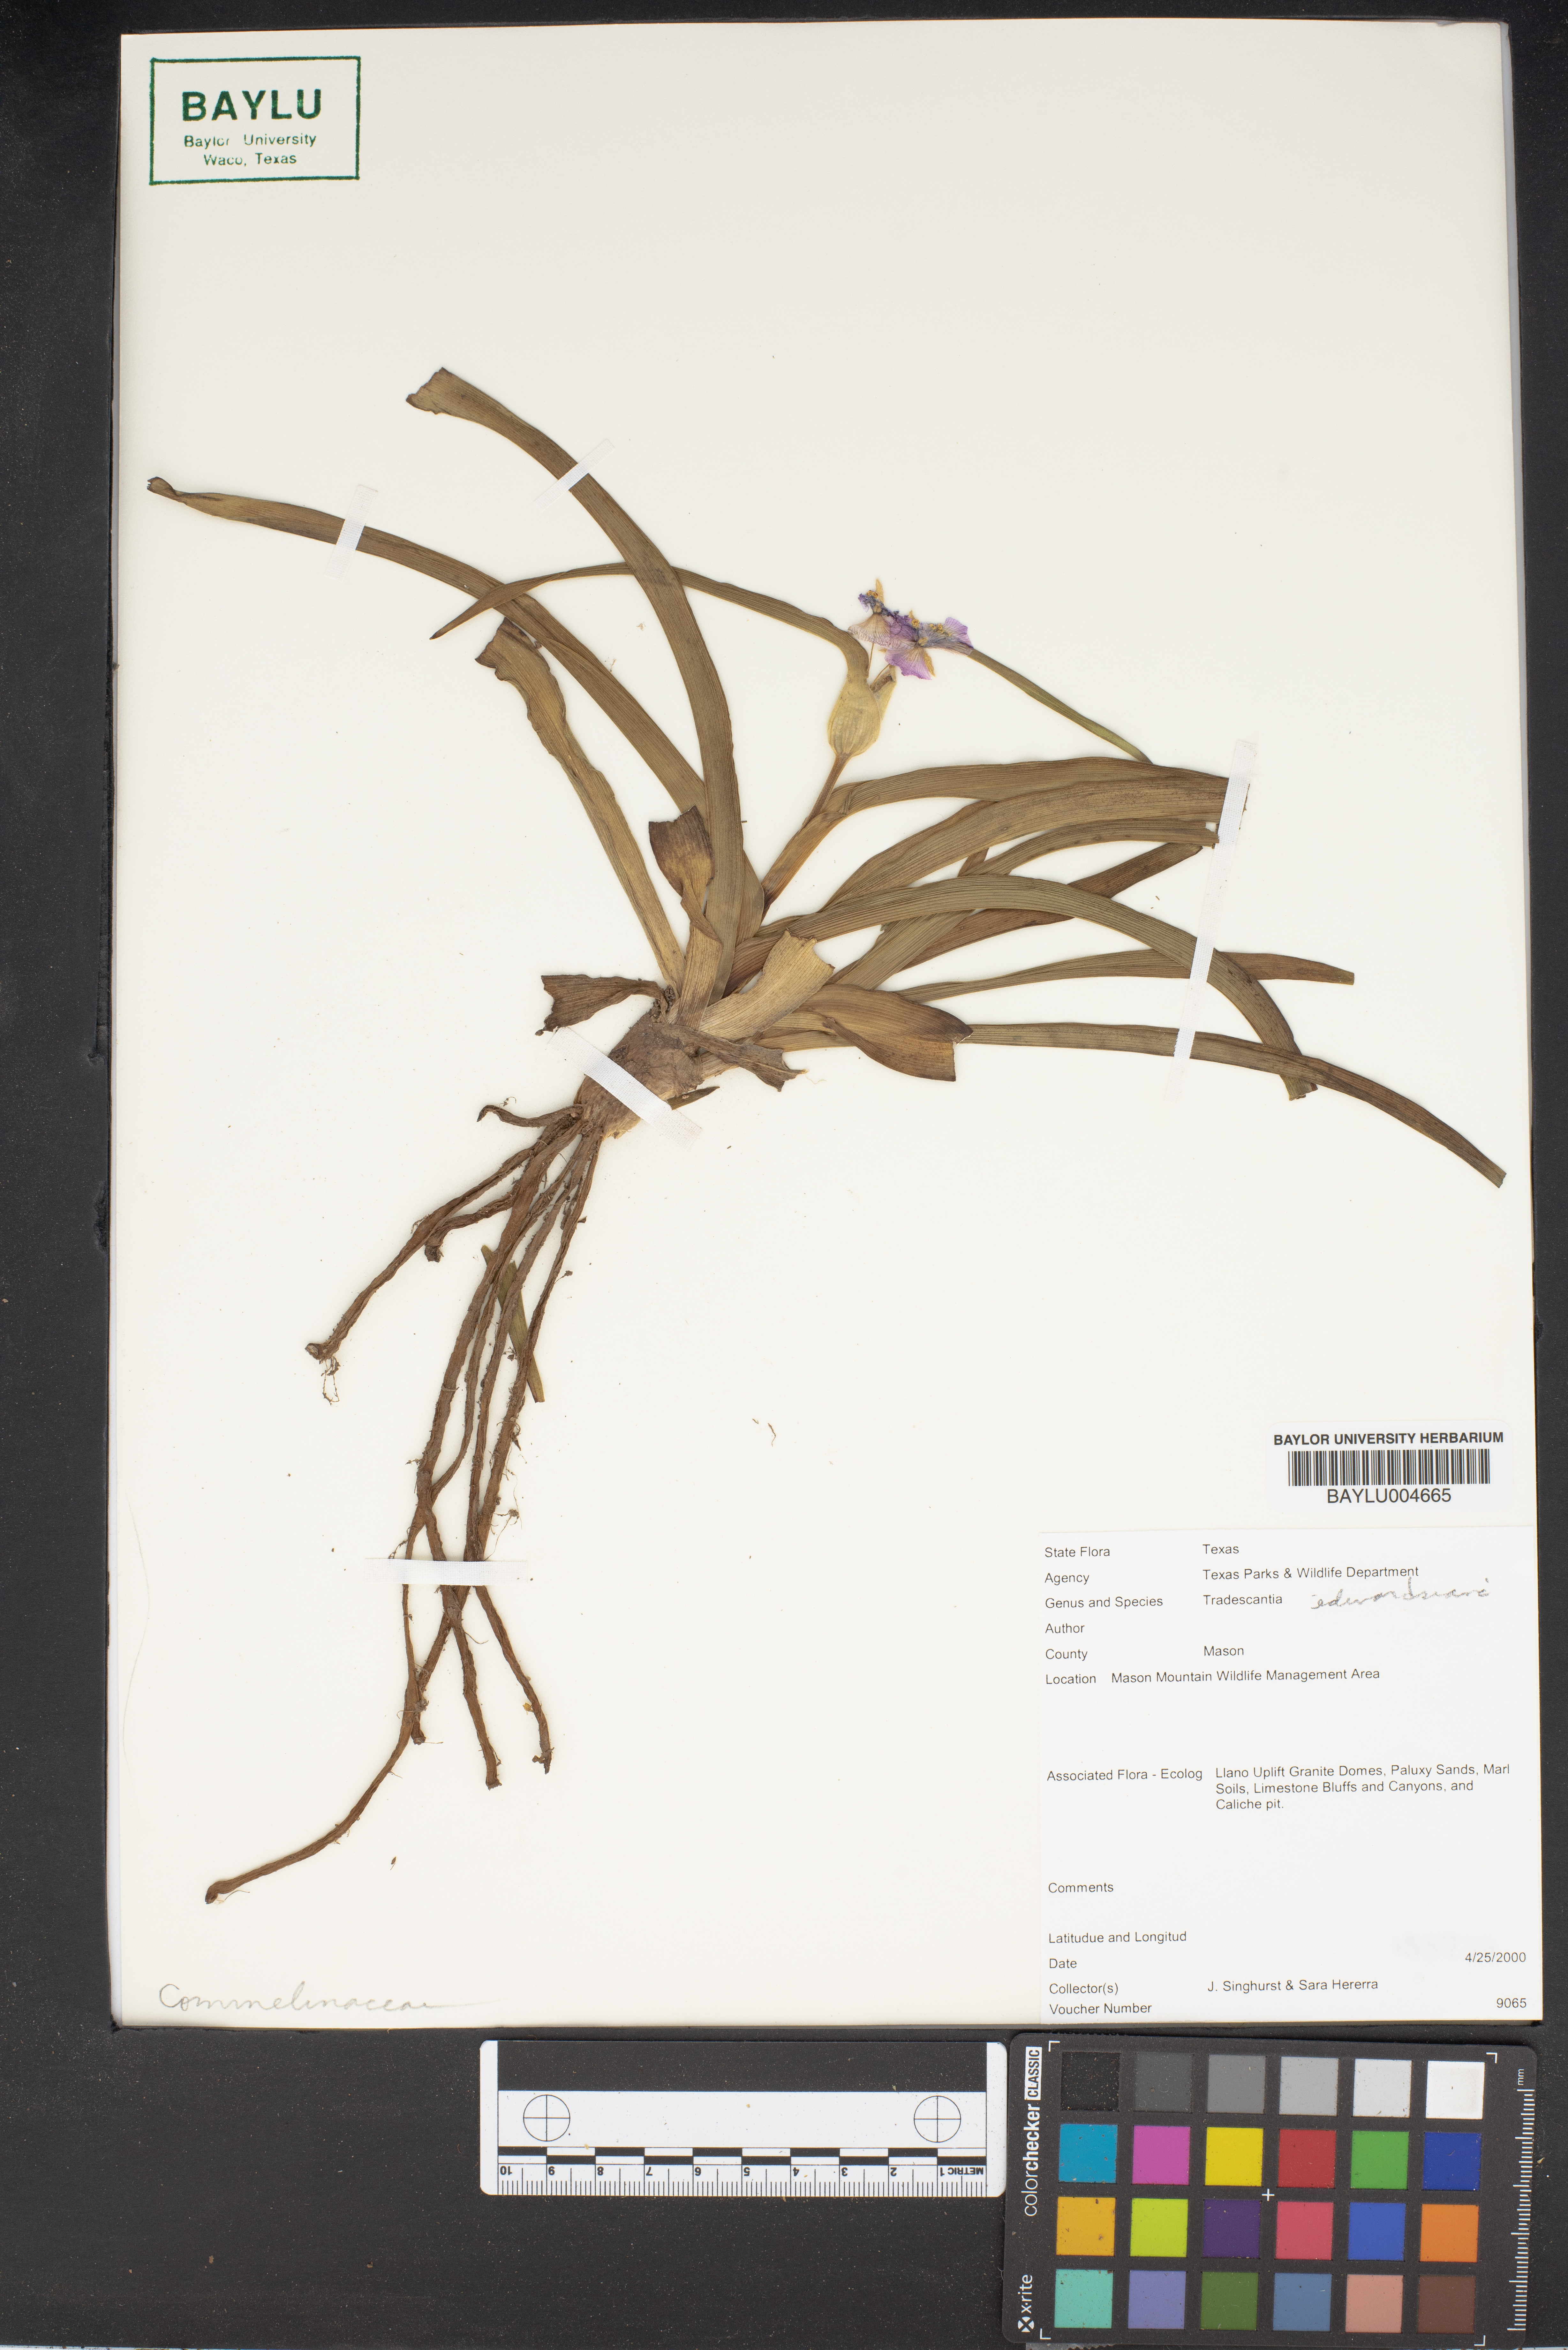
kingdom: Plantae
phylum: Tracheophyta
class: Liliopsida
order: Commelinales
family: Commelinaceae
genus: Tradescantia
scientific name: Tradescantia
